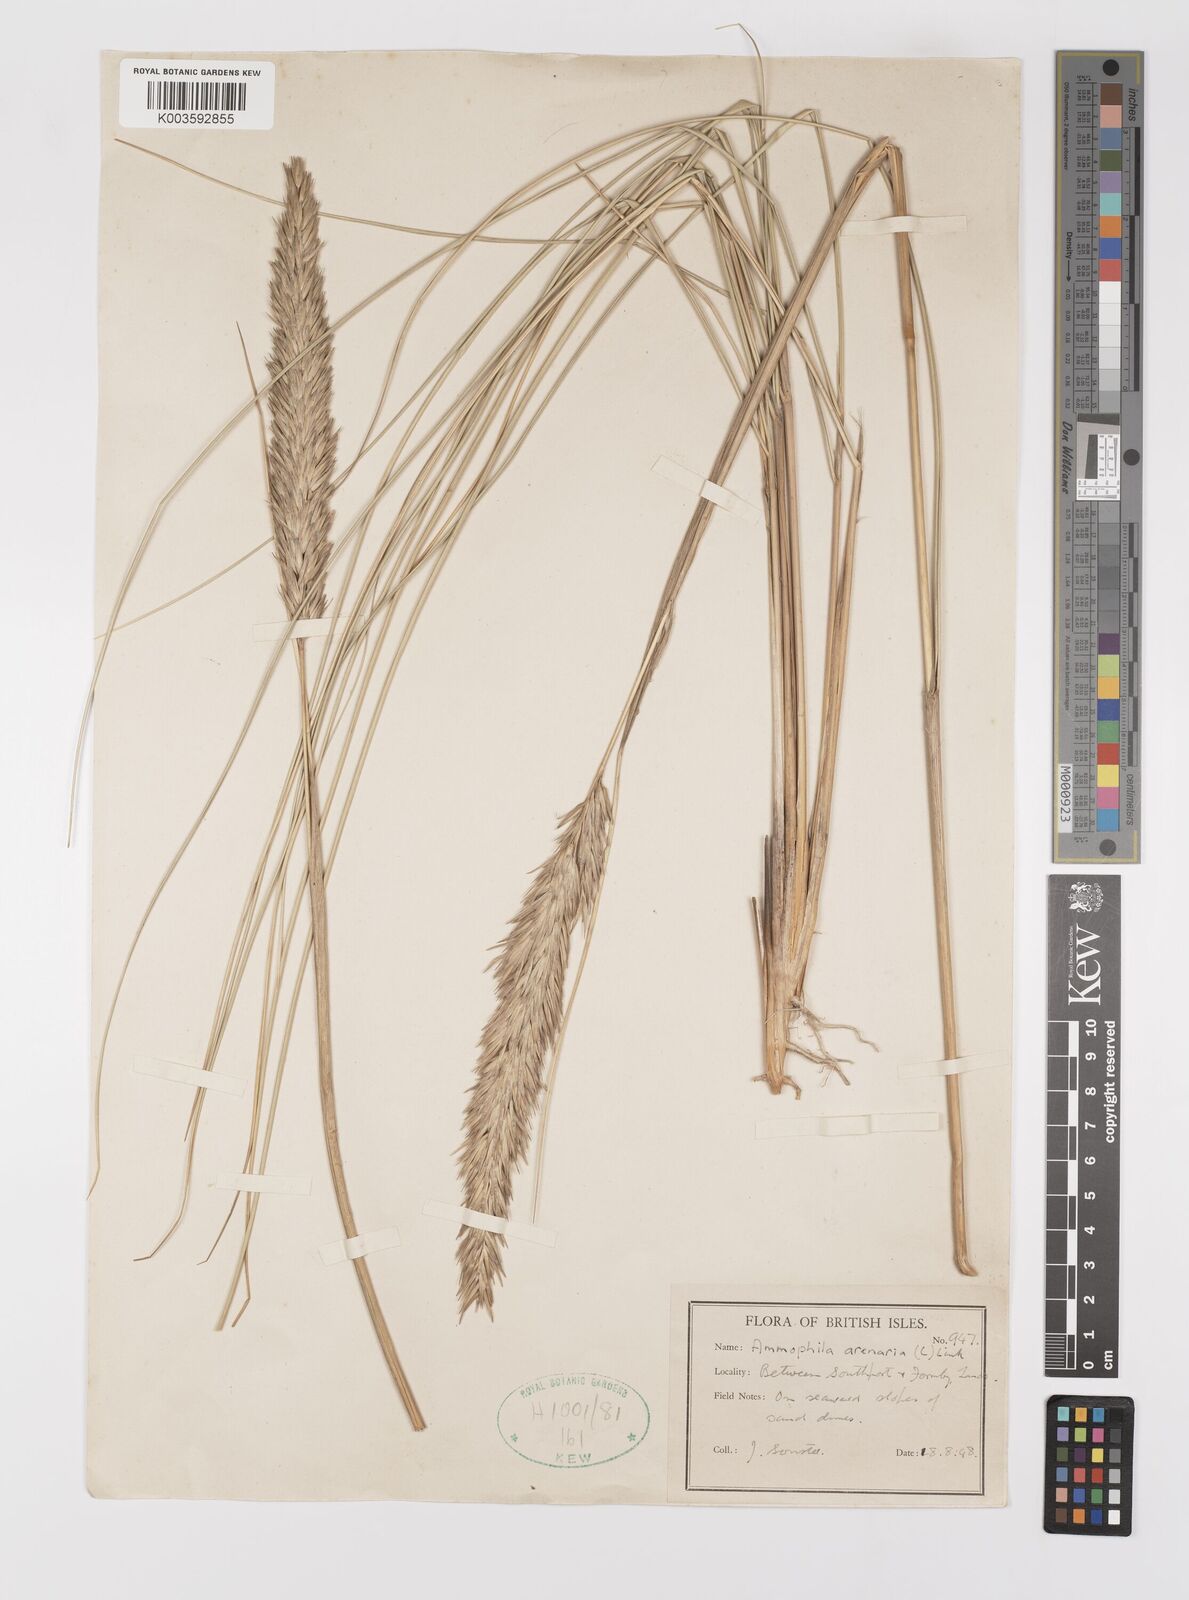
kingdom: Plantae
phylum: Tracheophyta
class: Liliopsida
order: Poales
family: Poaceae
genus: Calamagrostis
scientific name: Calamagrostis arenaria
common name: European beachgrass
